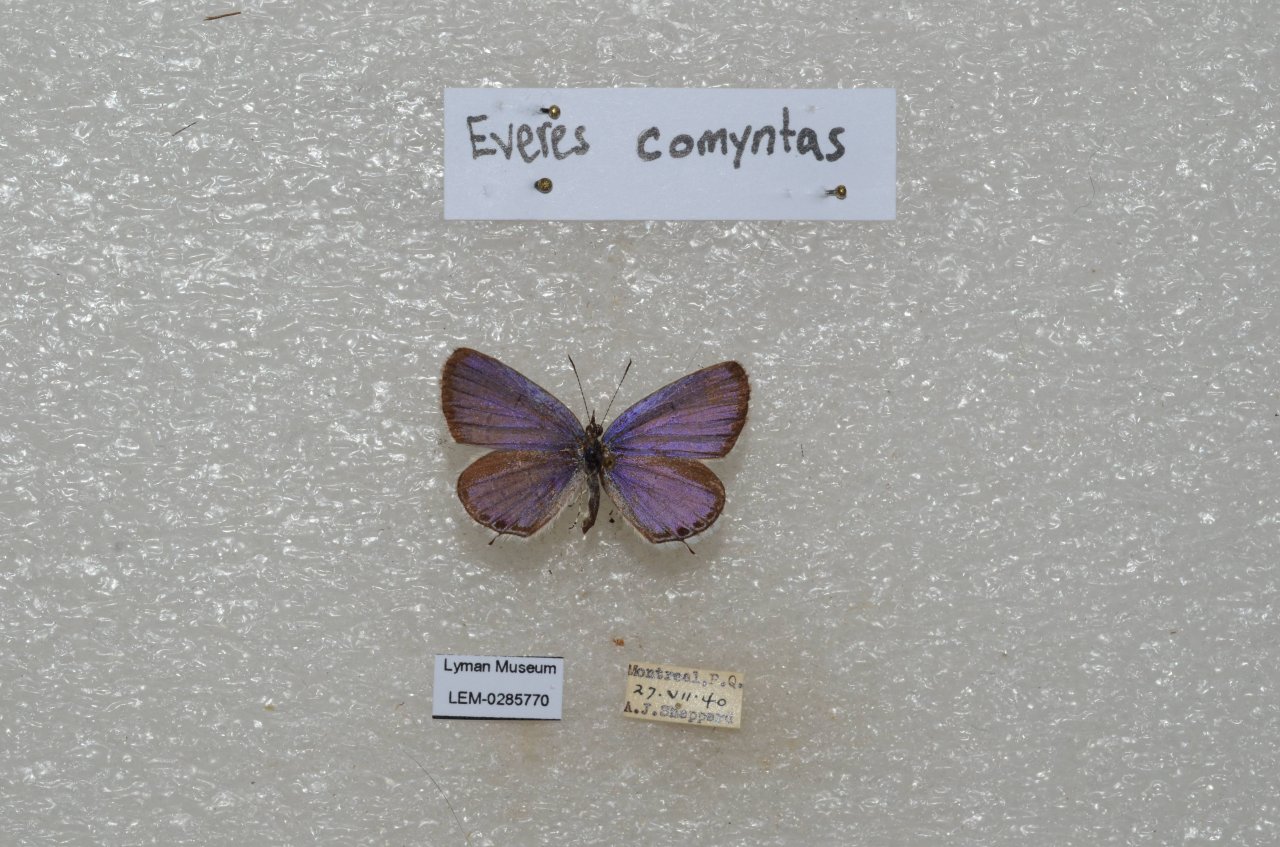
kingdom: Animalia
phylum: Arthropoda
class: Insecta
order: Lepidoptera
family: Lycaenidae
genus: Elkalyce
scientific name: Elkalyce comyntas
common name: Eastern Tailed-Blue
